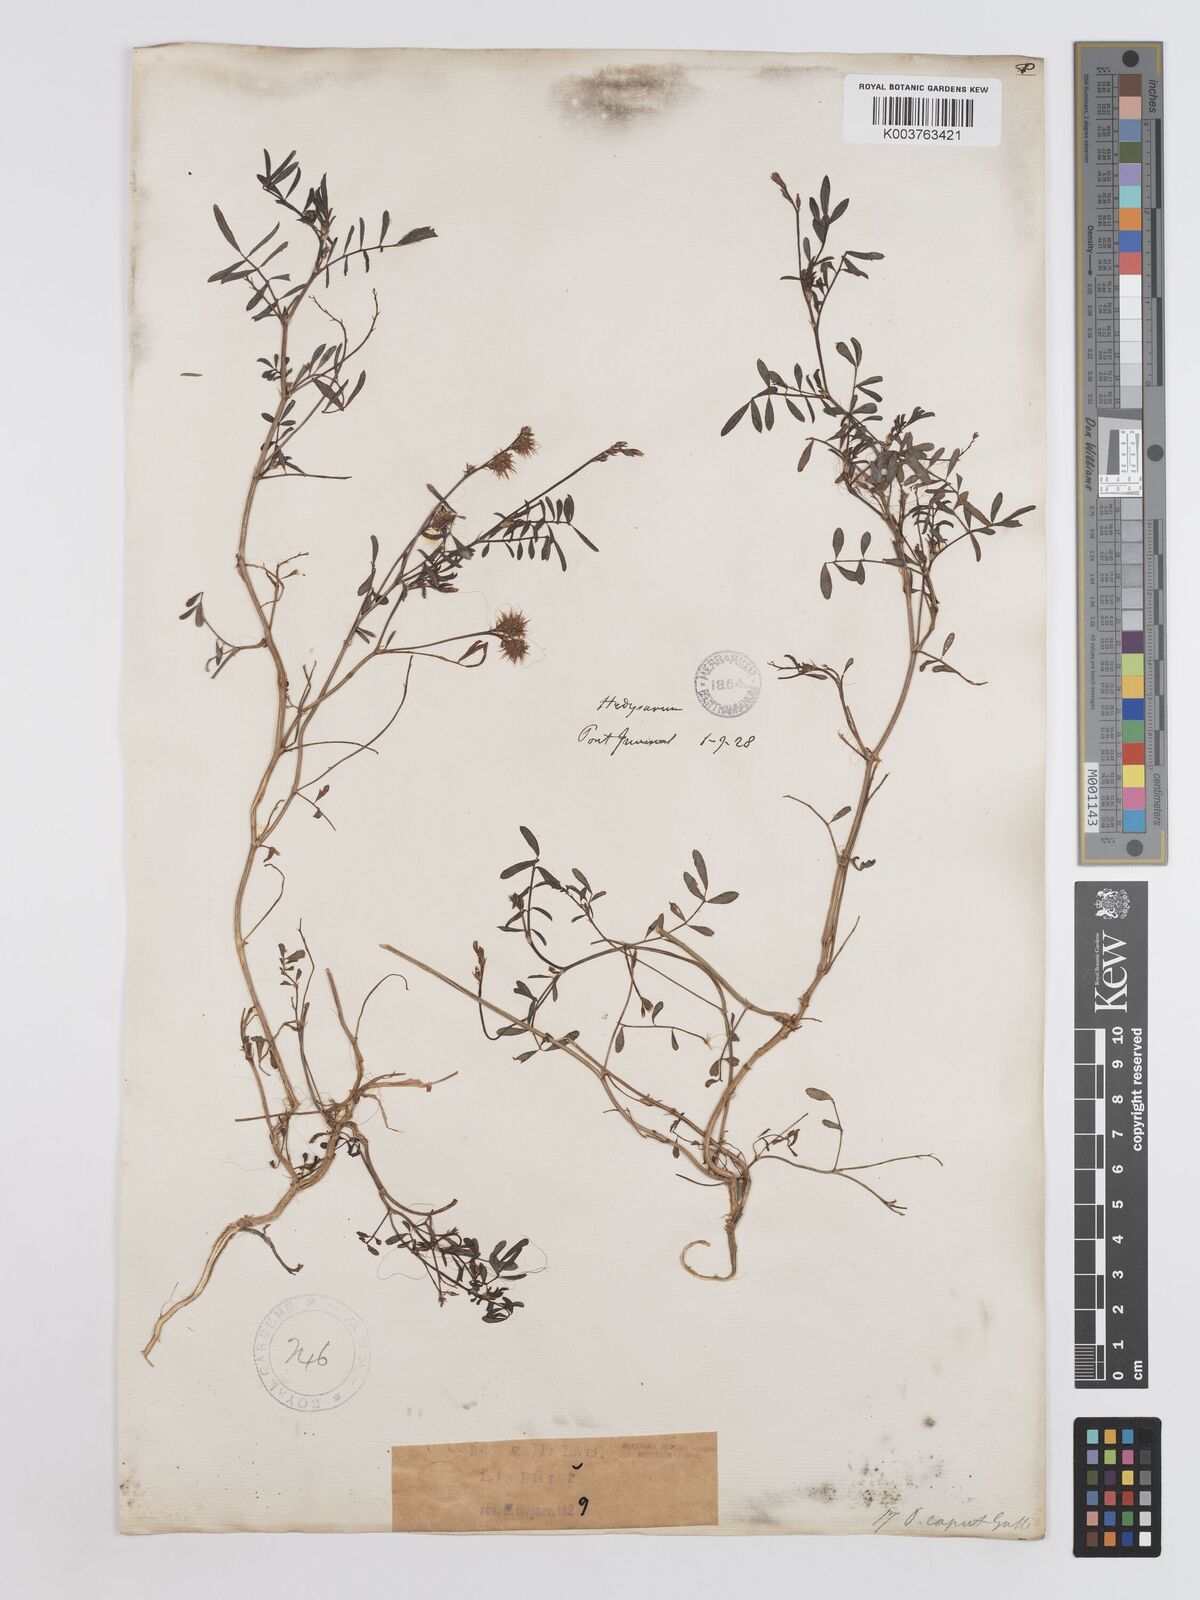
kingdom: Plantae
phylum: Tracheophyta
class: Magnoliopsida
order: Fabales
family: Fabaceae
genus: Onobrychis
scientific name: Onobrychis caput-galli
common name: Cockscomb sainfoin
